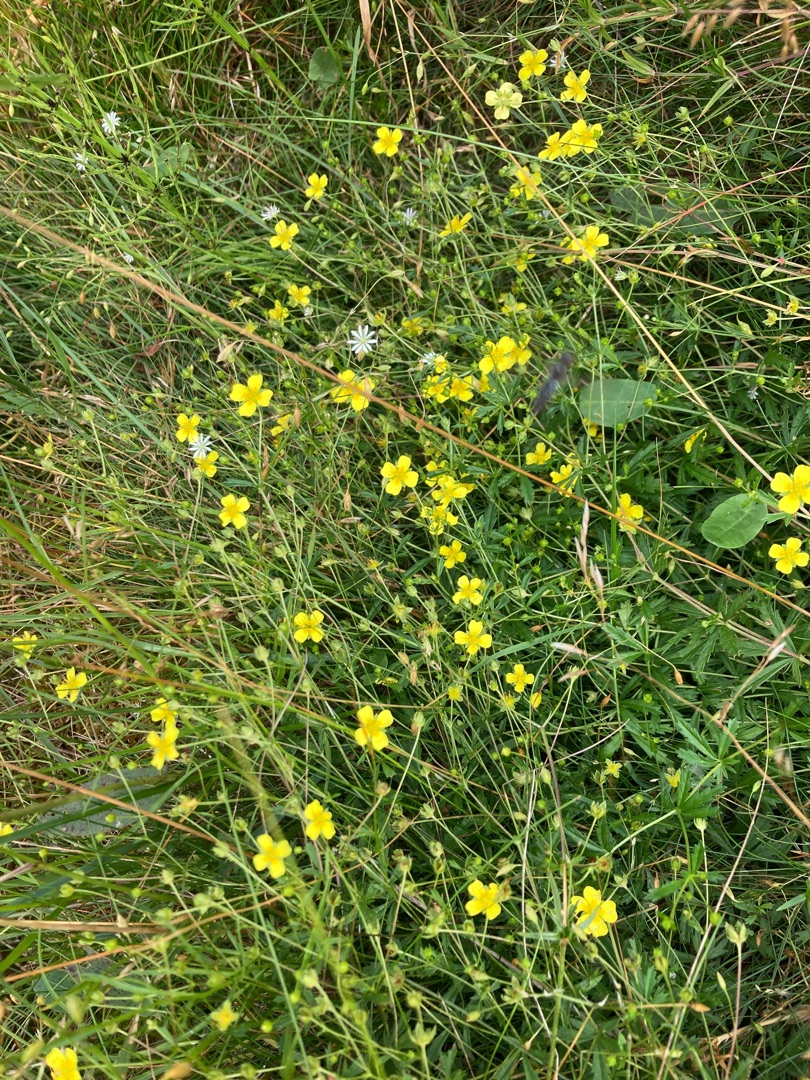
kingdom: Plantae
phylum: Tracheophyta
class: Magnoliopsida
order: Rosales
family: Rosaceae
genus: Potentilla
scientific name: Potentilla erecta
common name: Tormentil
